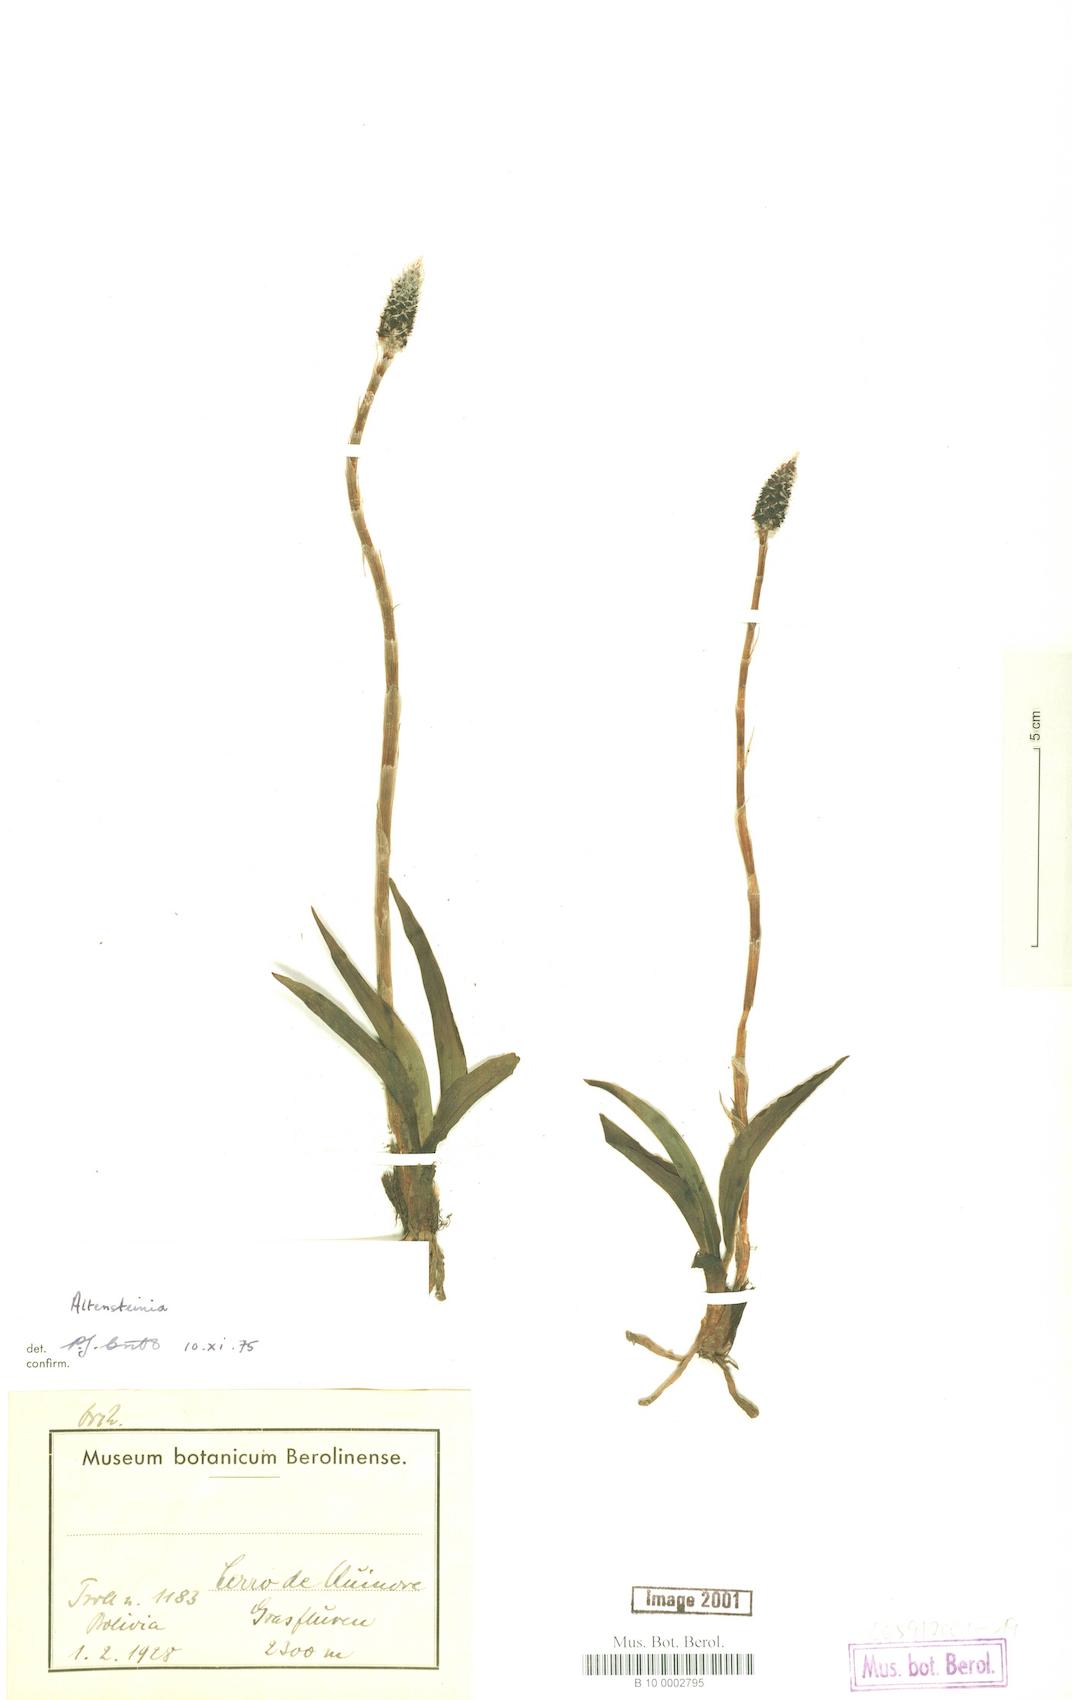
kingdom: Plantae
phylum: Tracheophyta
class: Liliopsida
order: Asparagales
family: Orchidaceae
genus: Altensteinia
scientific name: Altensteinia
